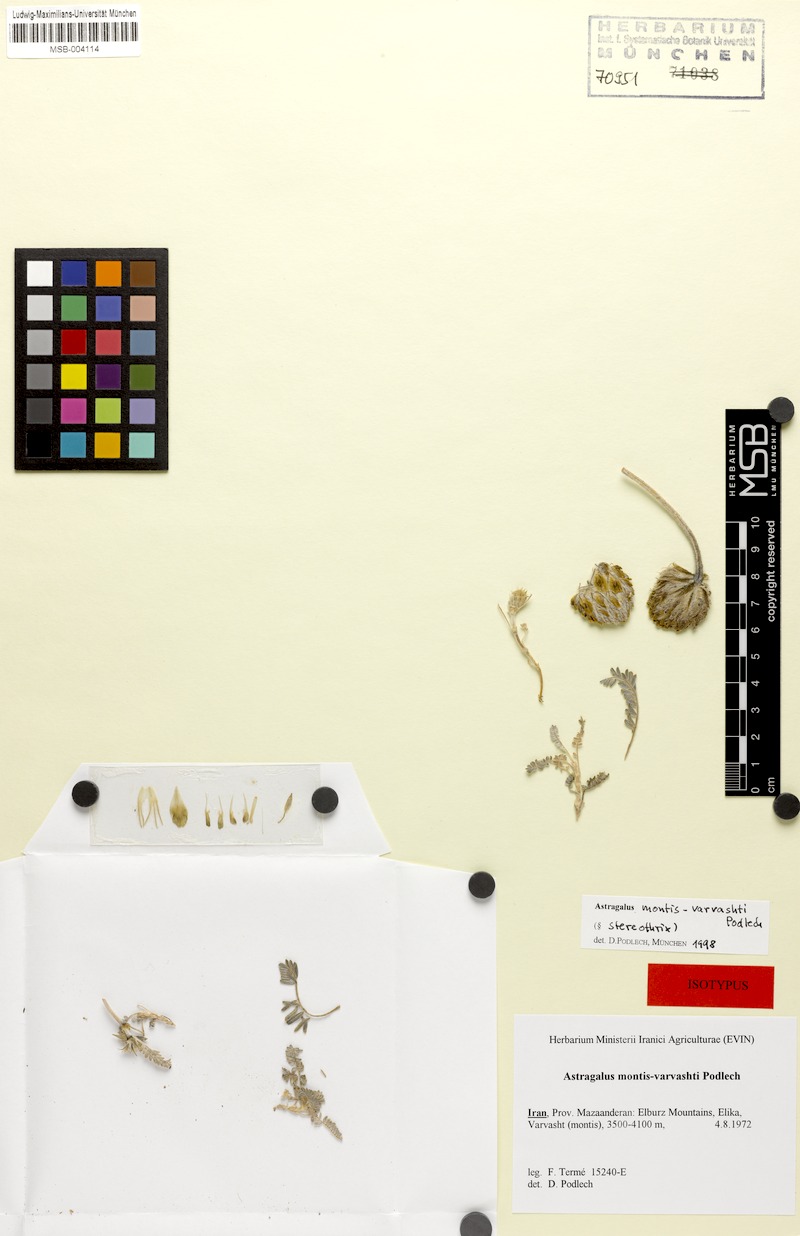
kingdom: Plantae
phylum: Tracheophyta
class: Magnoliopsida
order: Fabales
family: Fabaceae
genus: Astragalus
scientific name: Astragalus montis-varvashti
